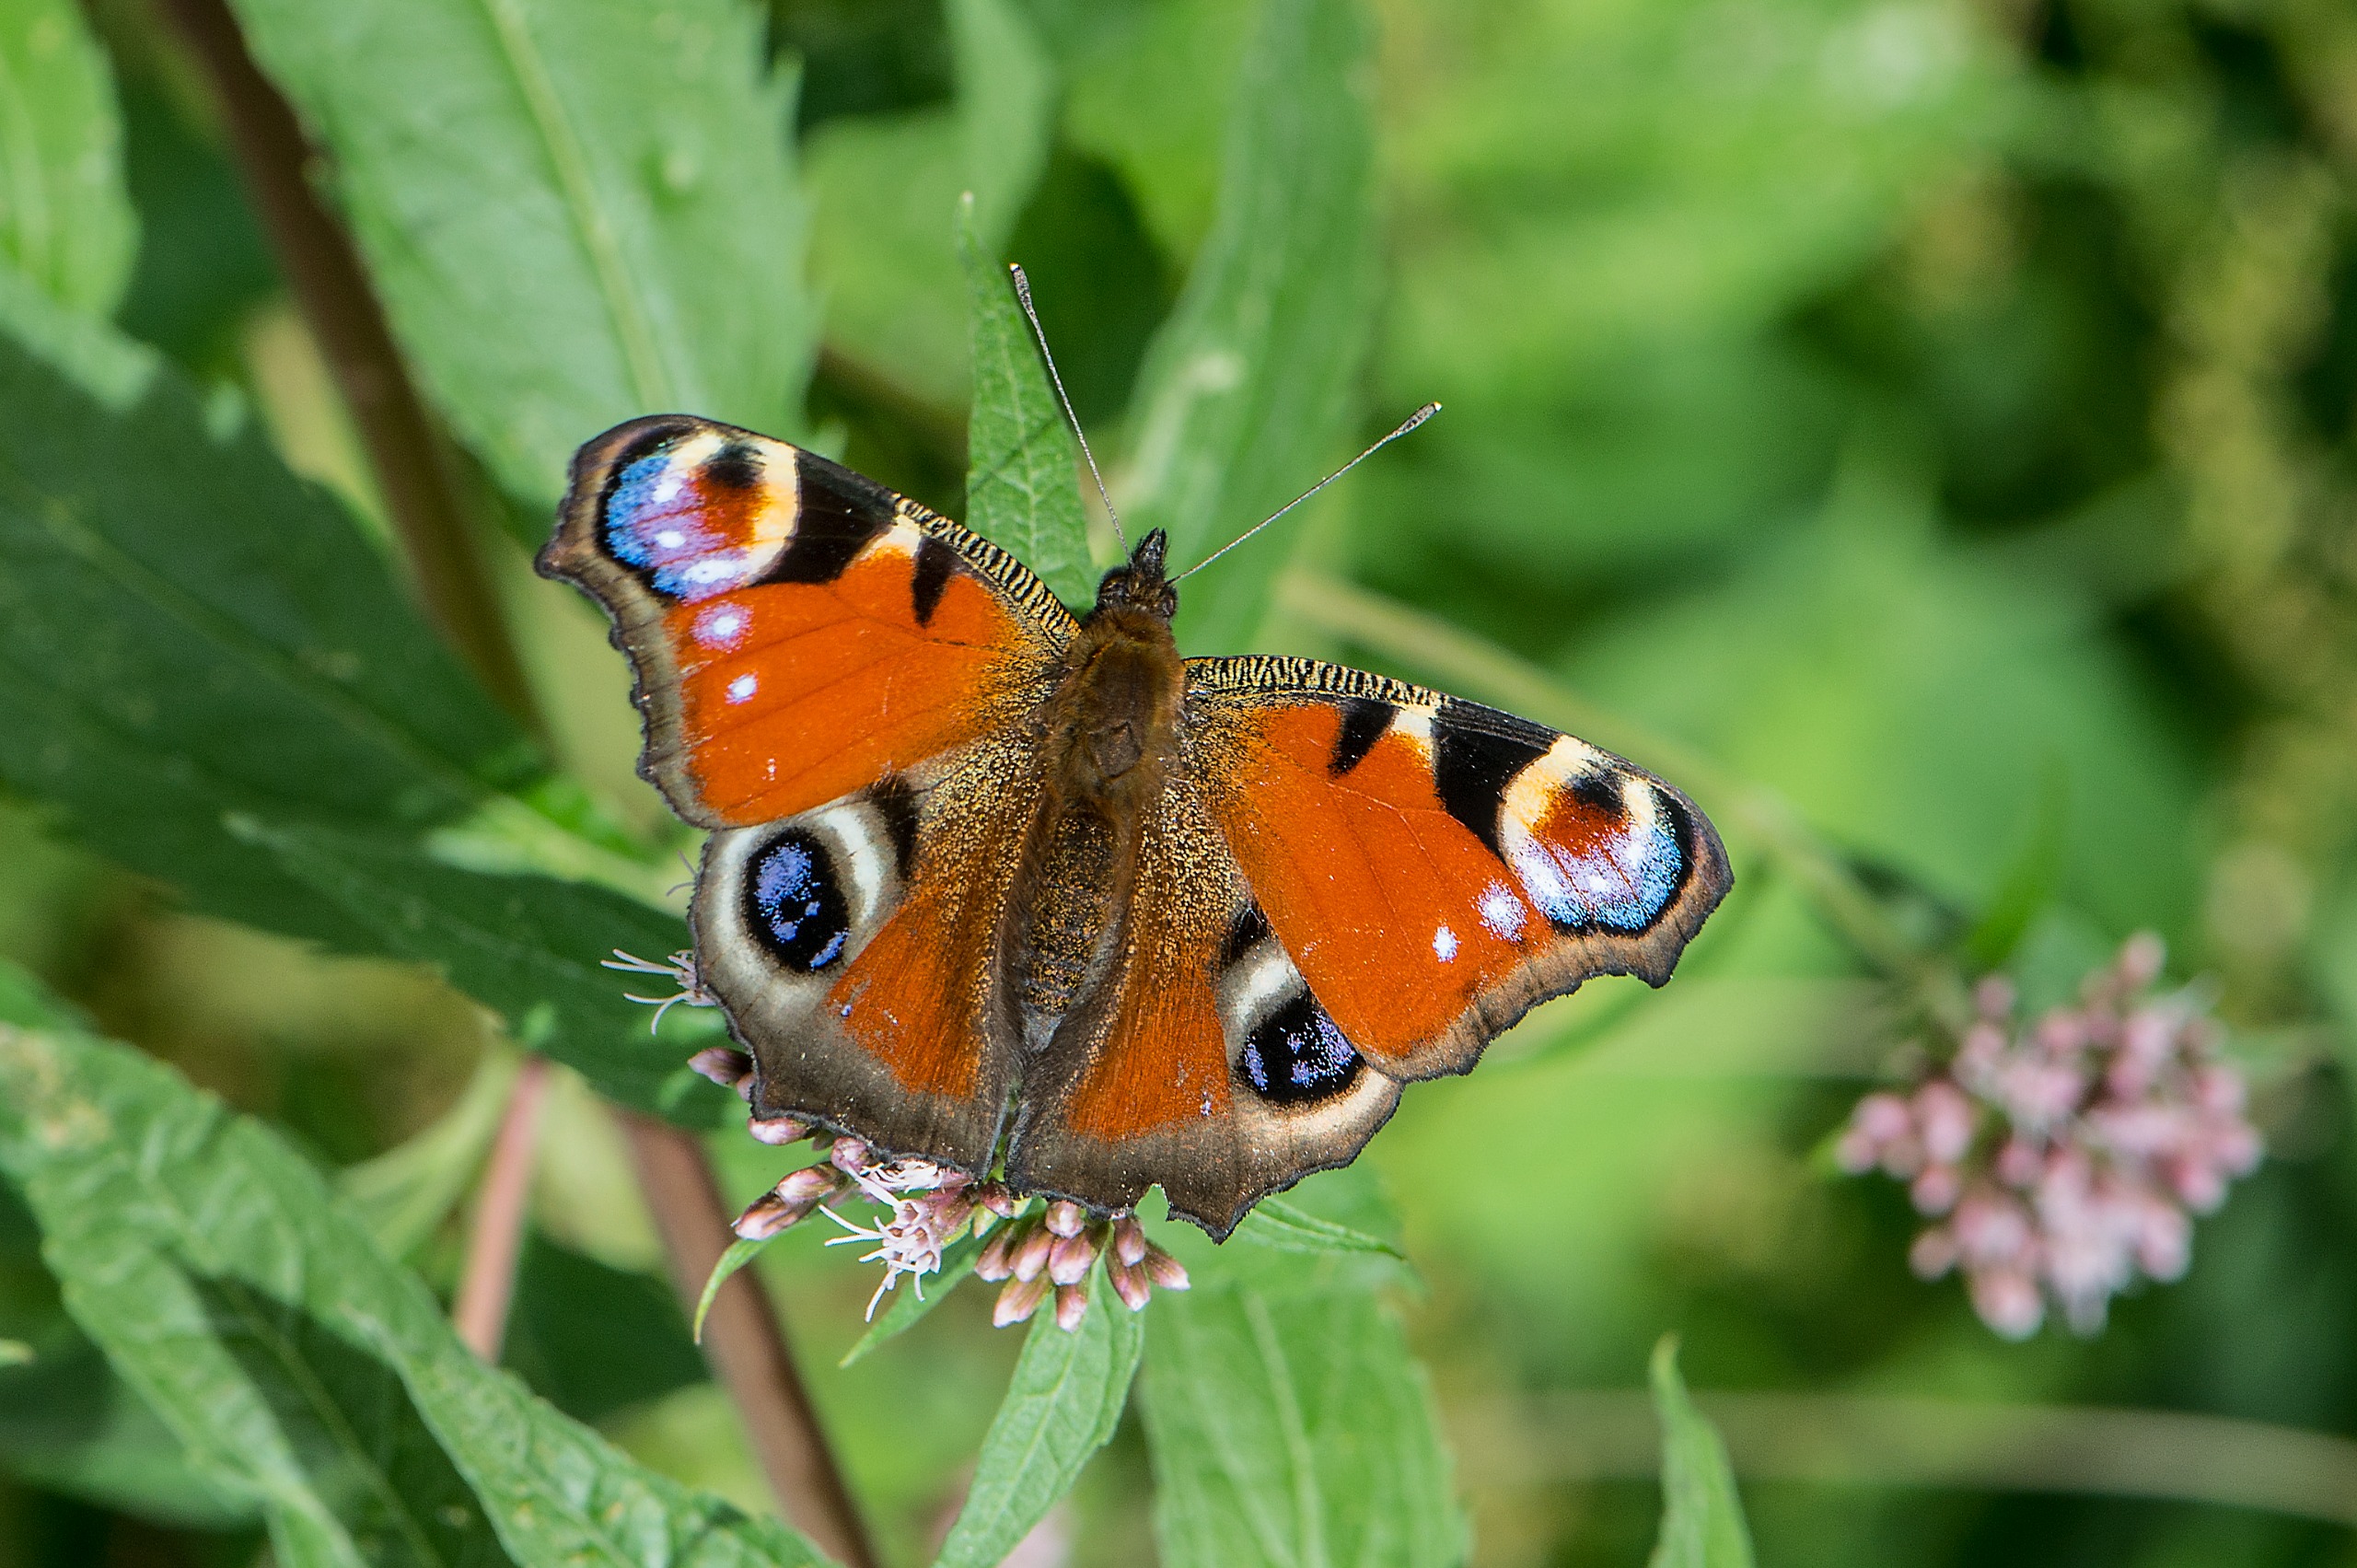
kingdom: Animalia
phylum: Arthropoda
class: Insecta
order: Lepidoptera
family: Nymphalidae
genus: Aglais
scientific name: Aglais io
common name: Dagpåfugleøje
